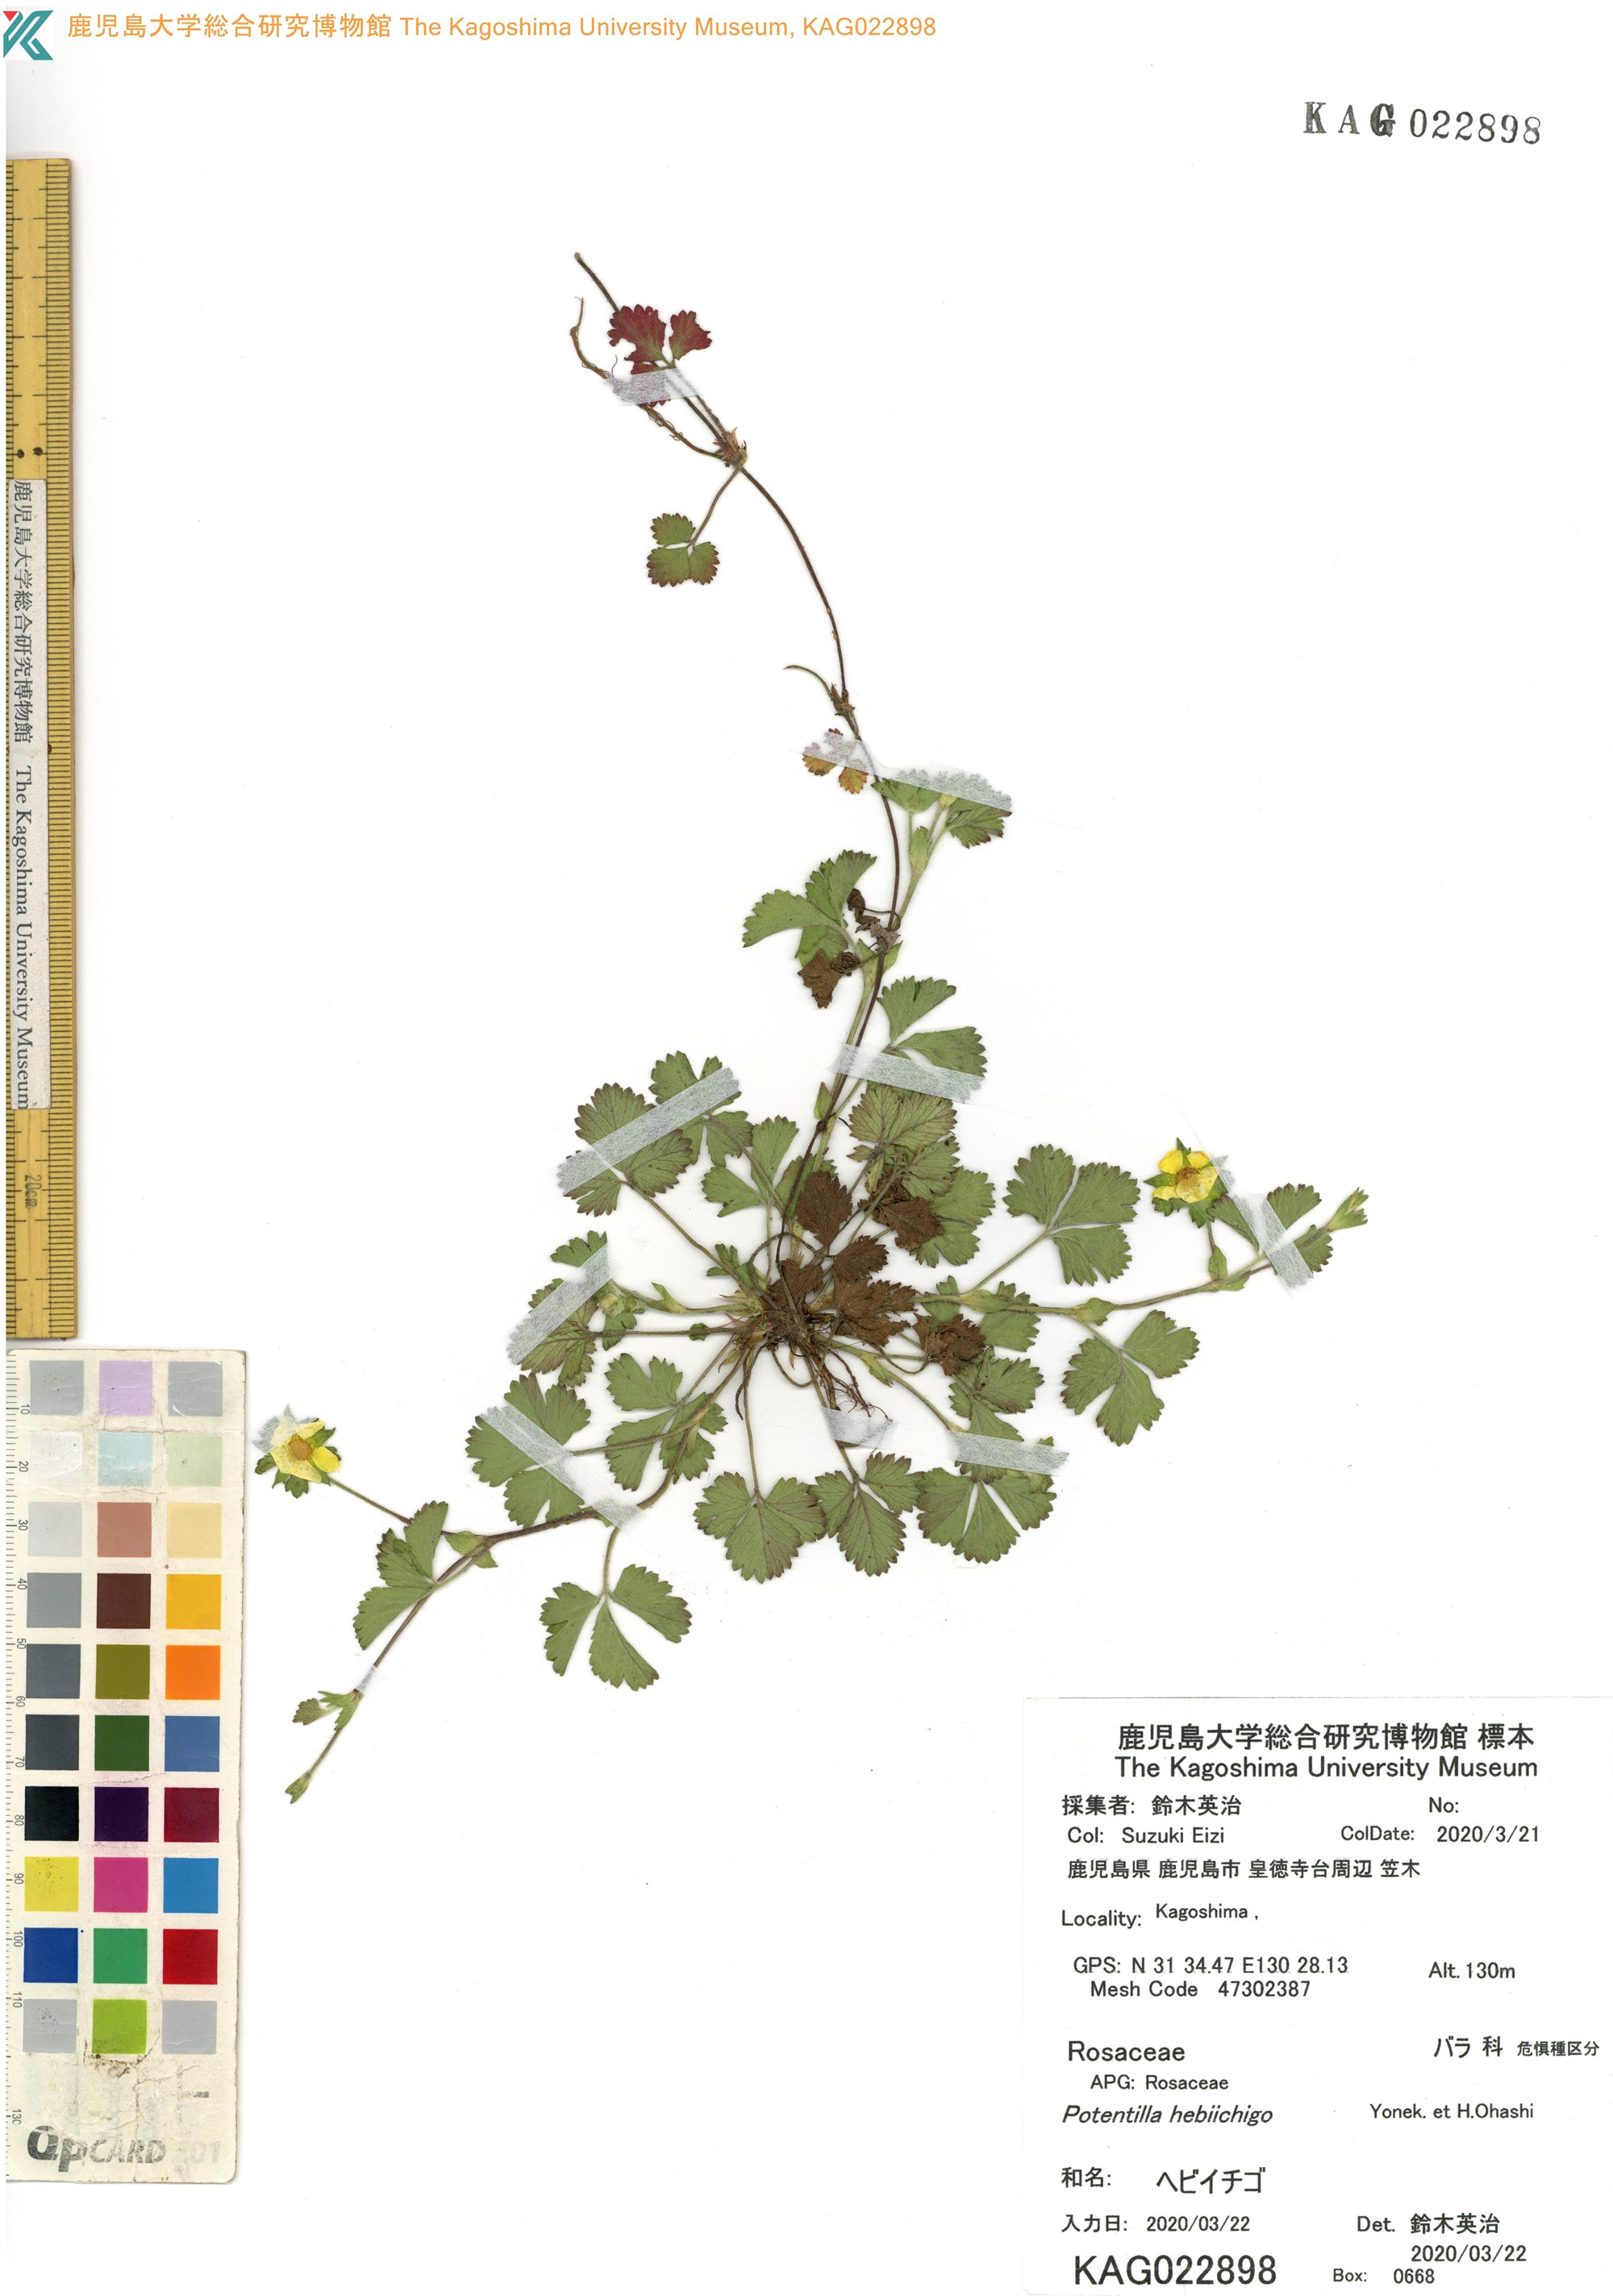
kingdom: Plantae
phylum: Tracheophyta
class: Magnoliopsida
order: Rosales
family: Rosaceae
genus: Potentilla
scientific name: Potentilla wallichiana
